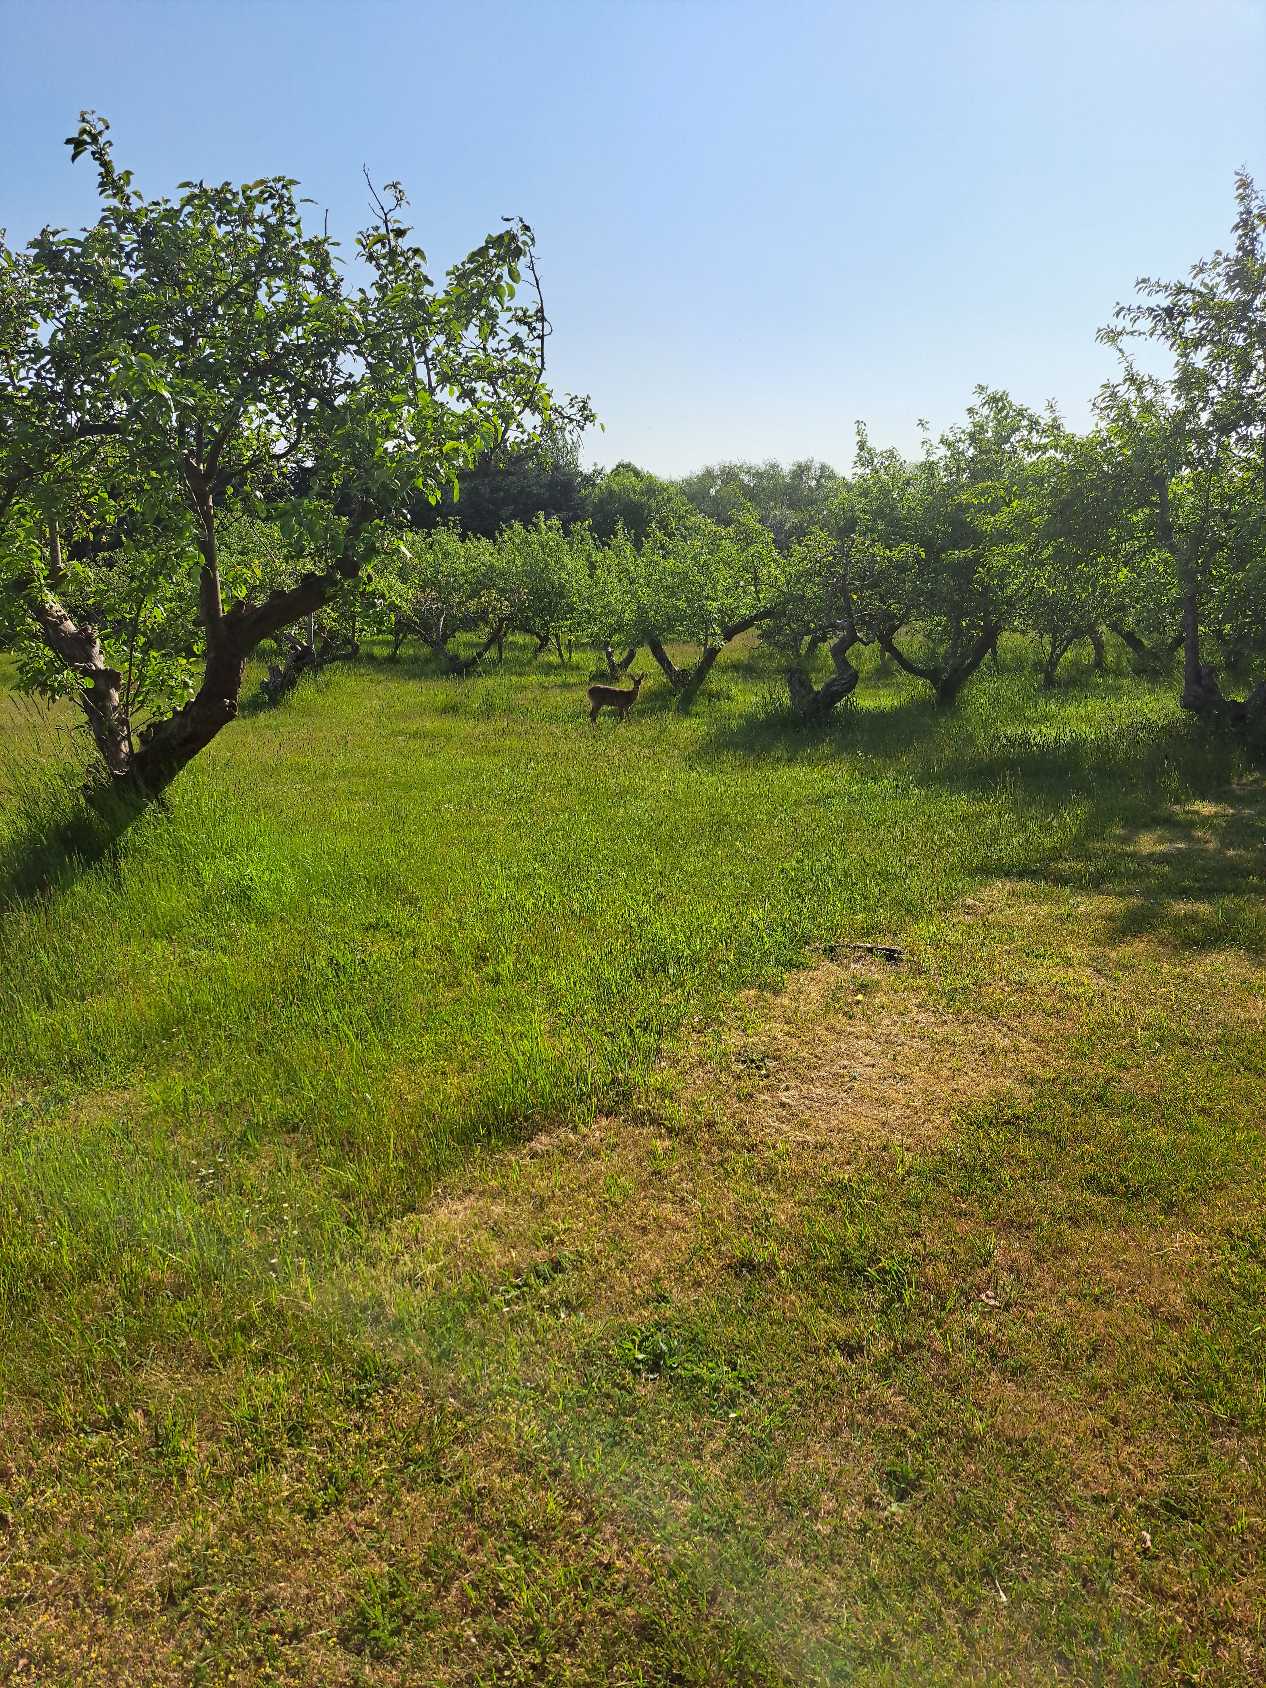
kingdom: Animalia
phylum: Chordata
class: Mammalia
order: Artiodactyla
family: Cervidae
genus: Capreolus
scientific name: Capreolus capreolus
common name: Rådyr
